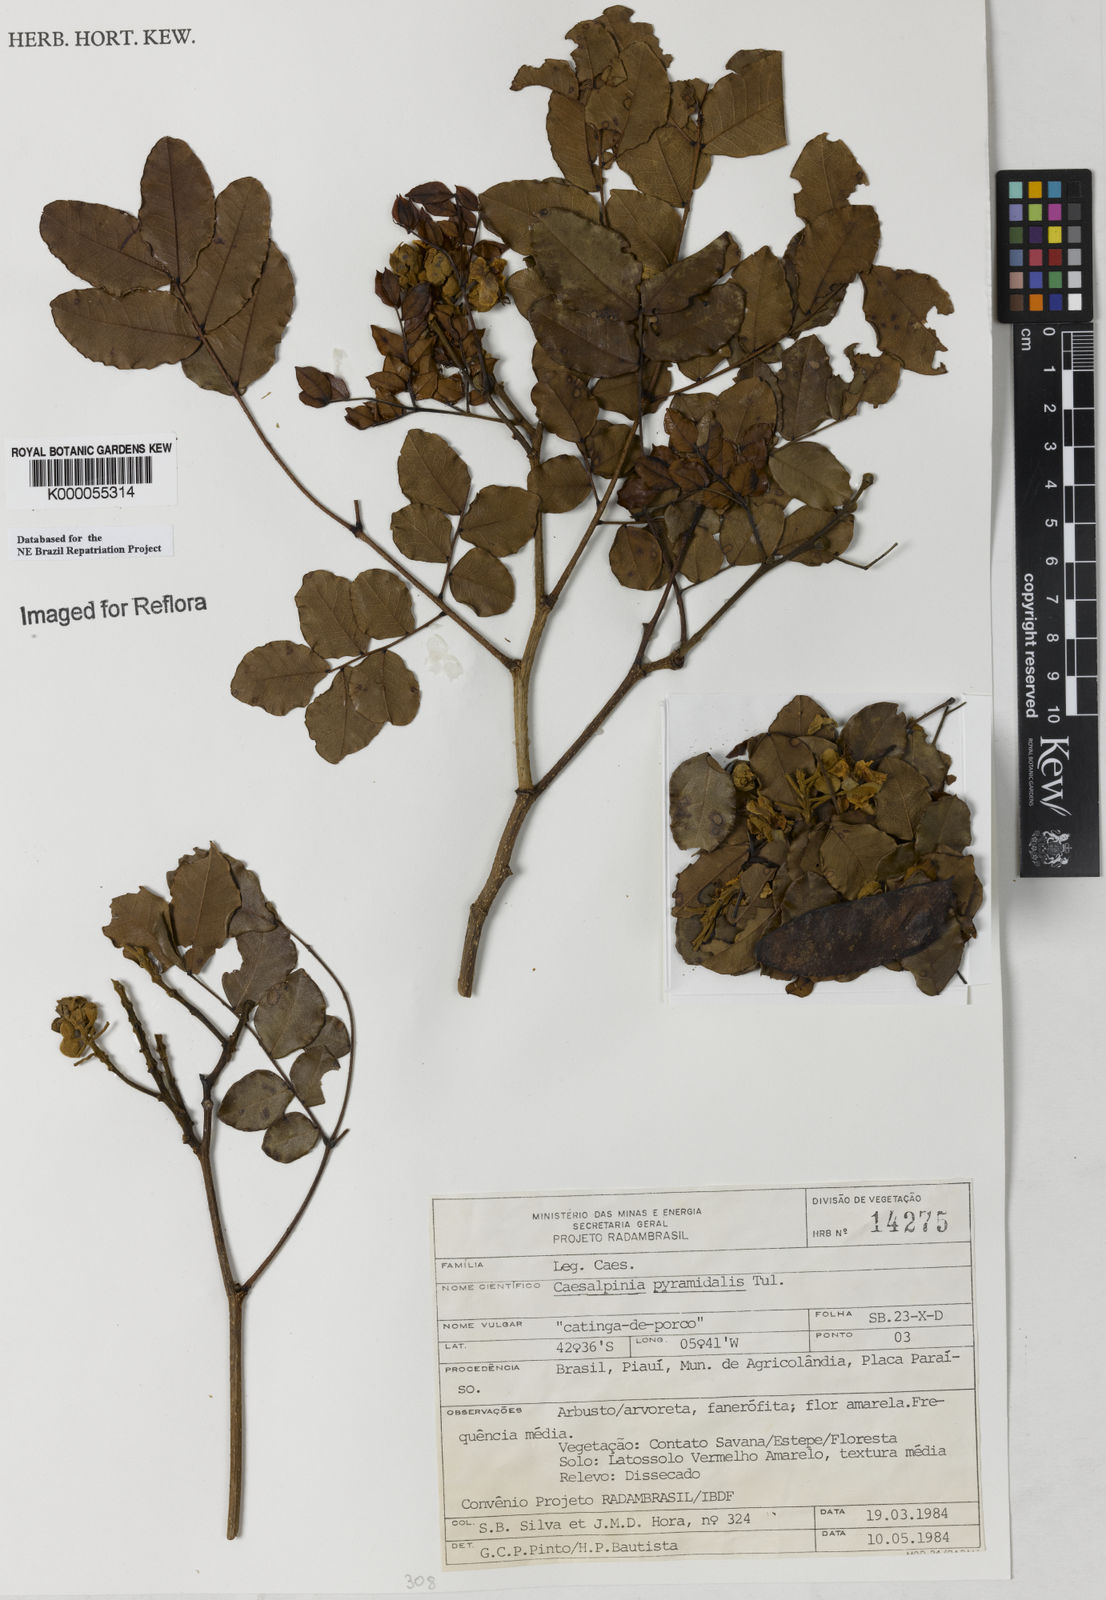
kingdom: Plantae
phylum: Tracheophyta
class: Magnoliopsida
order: Fabales
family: Fabaceae
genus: Cenostigma
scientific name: Cenostigma pyramidale
